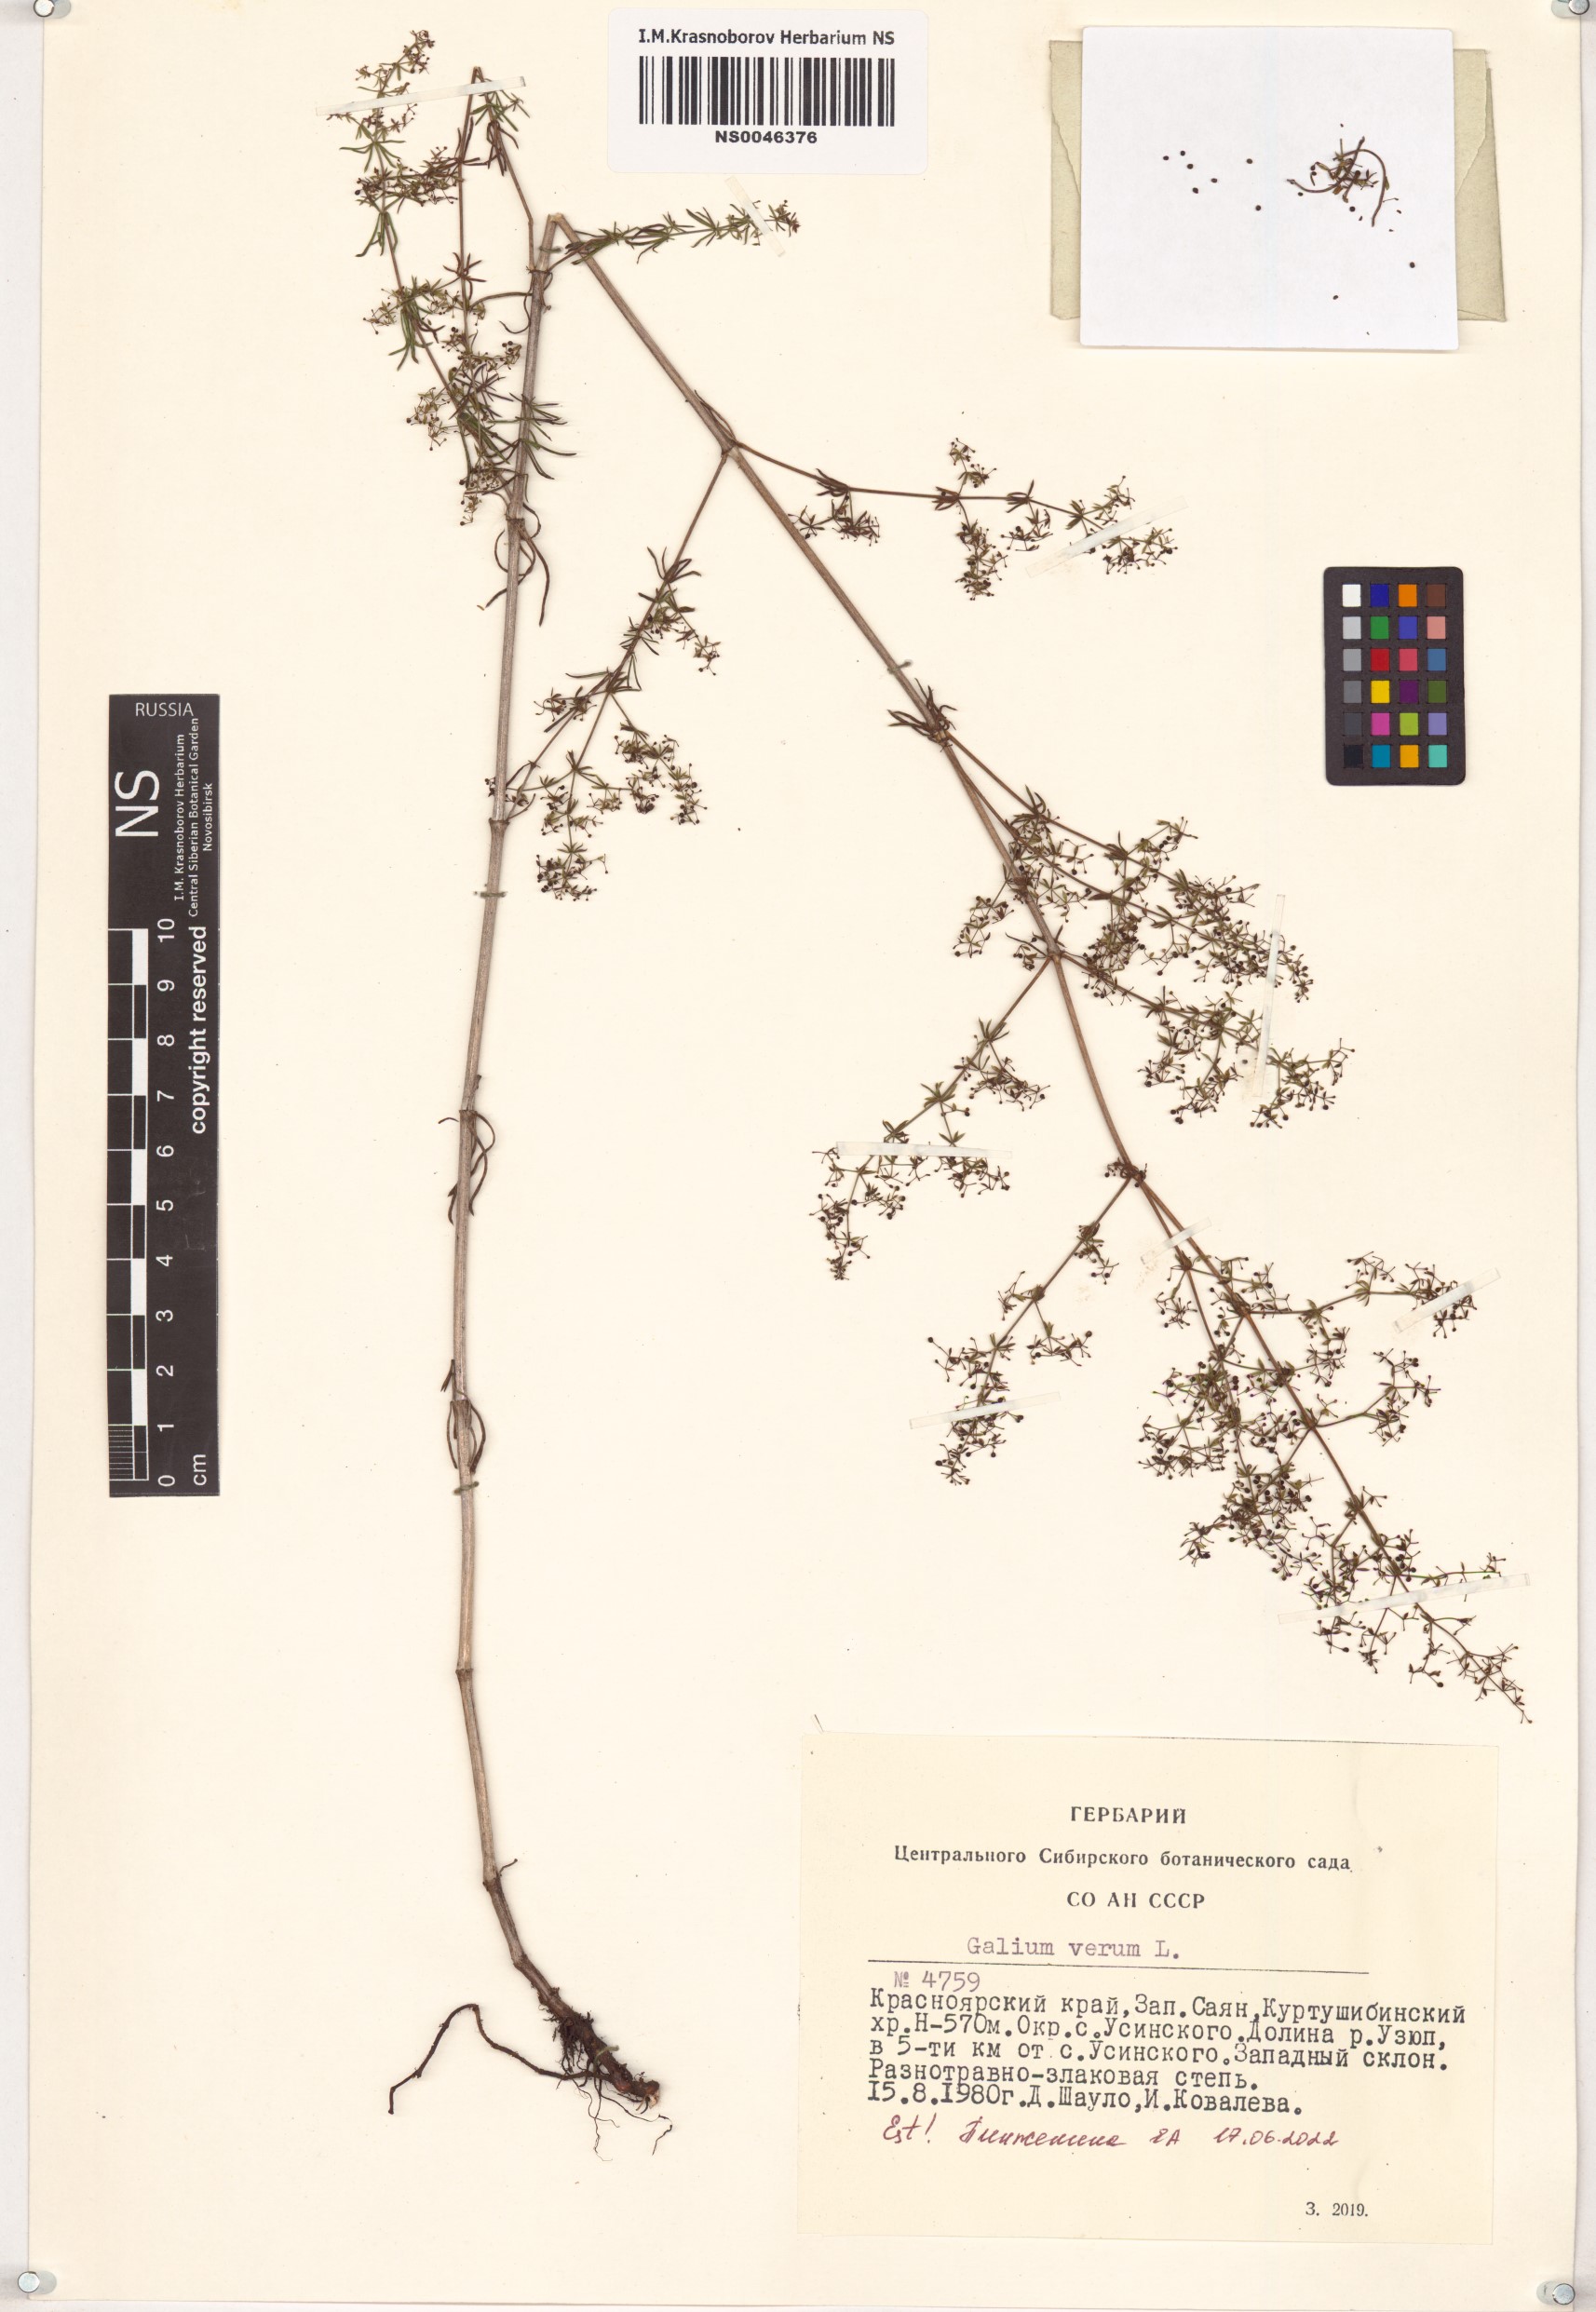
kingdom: Plantae
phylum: Tracheophyta
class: Magnoliopsida
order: Gentianales
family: Rubiaceae
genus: Galium
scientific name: Galium verum
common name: Lady's bedstraw
